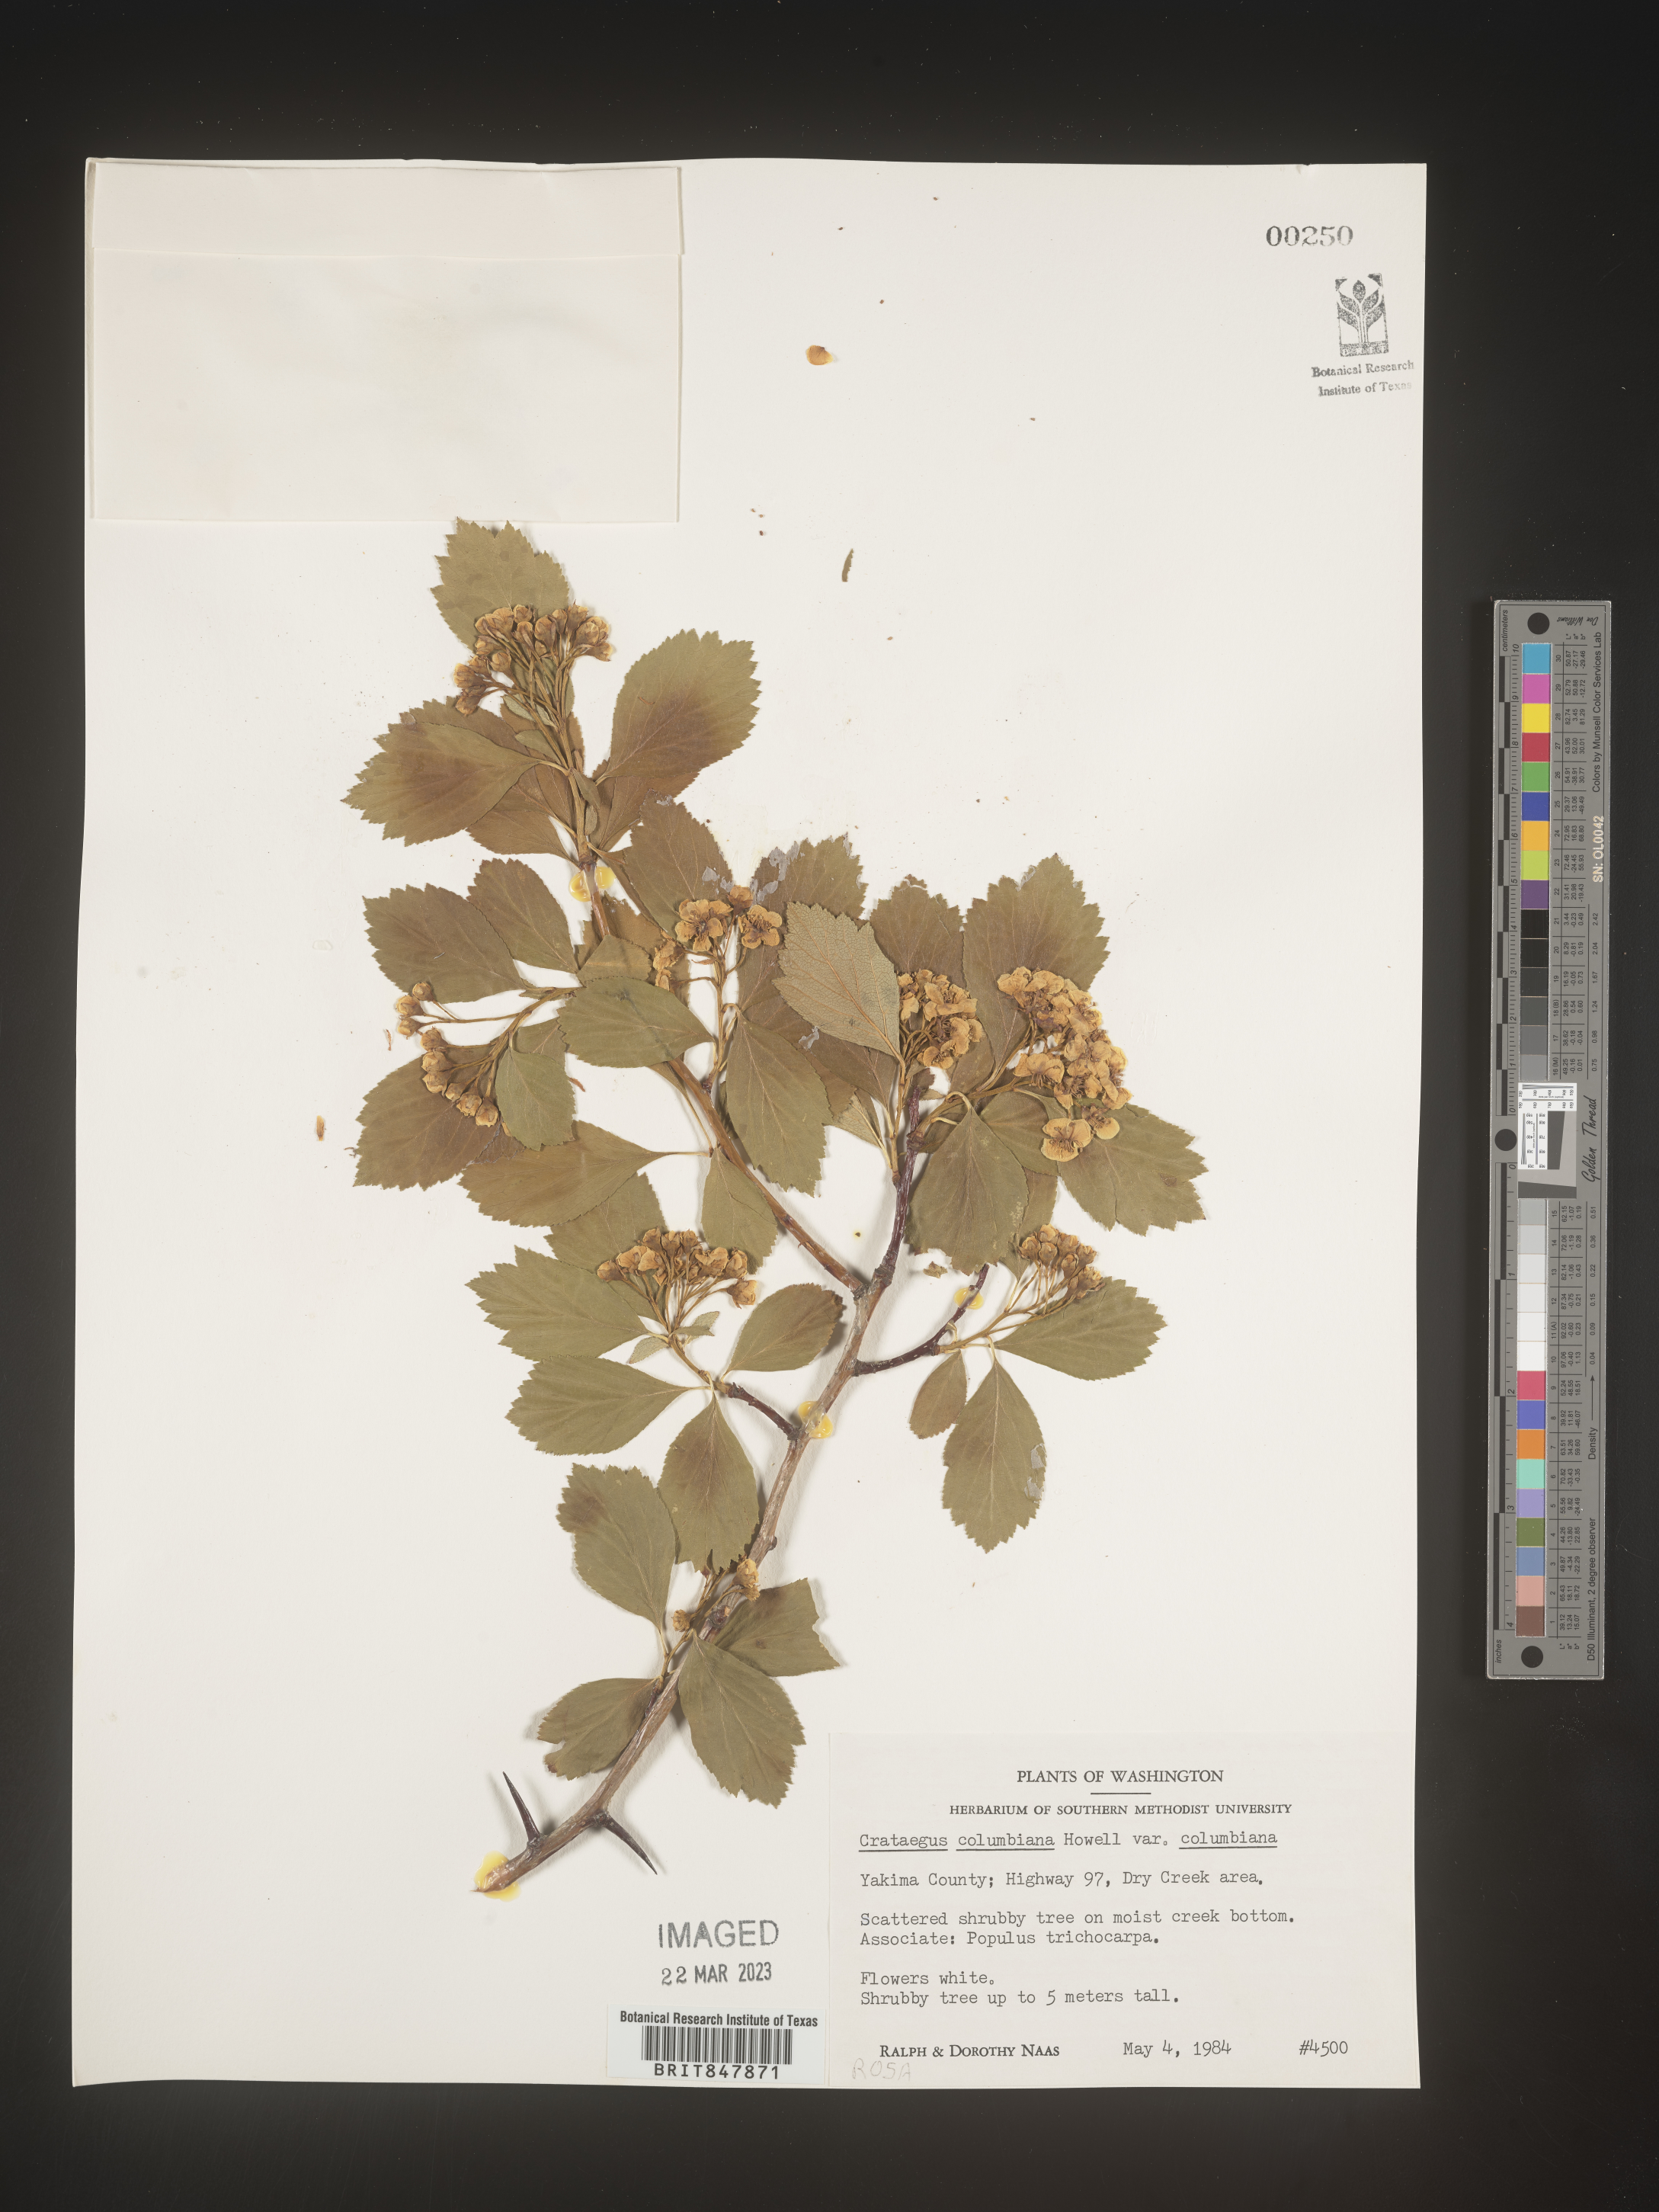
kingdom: Plantae
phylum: Tracheophyta
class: Magnoliopsida
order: Rosales
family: Rosaceae
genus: Crataegus
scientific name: Crataegus columbiana
